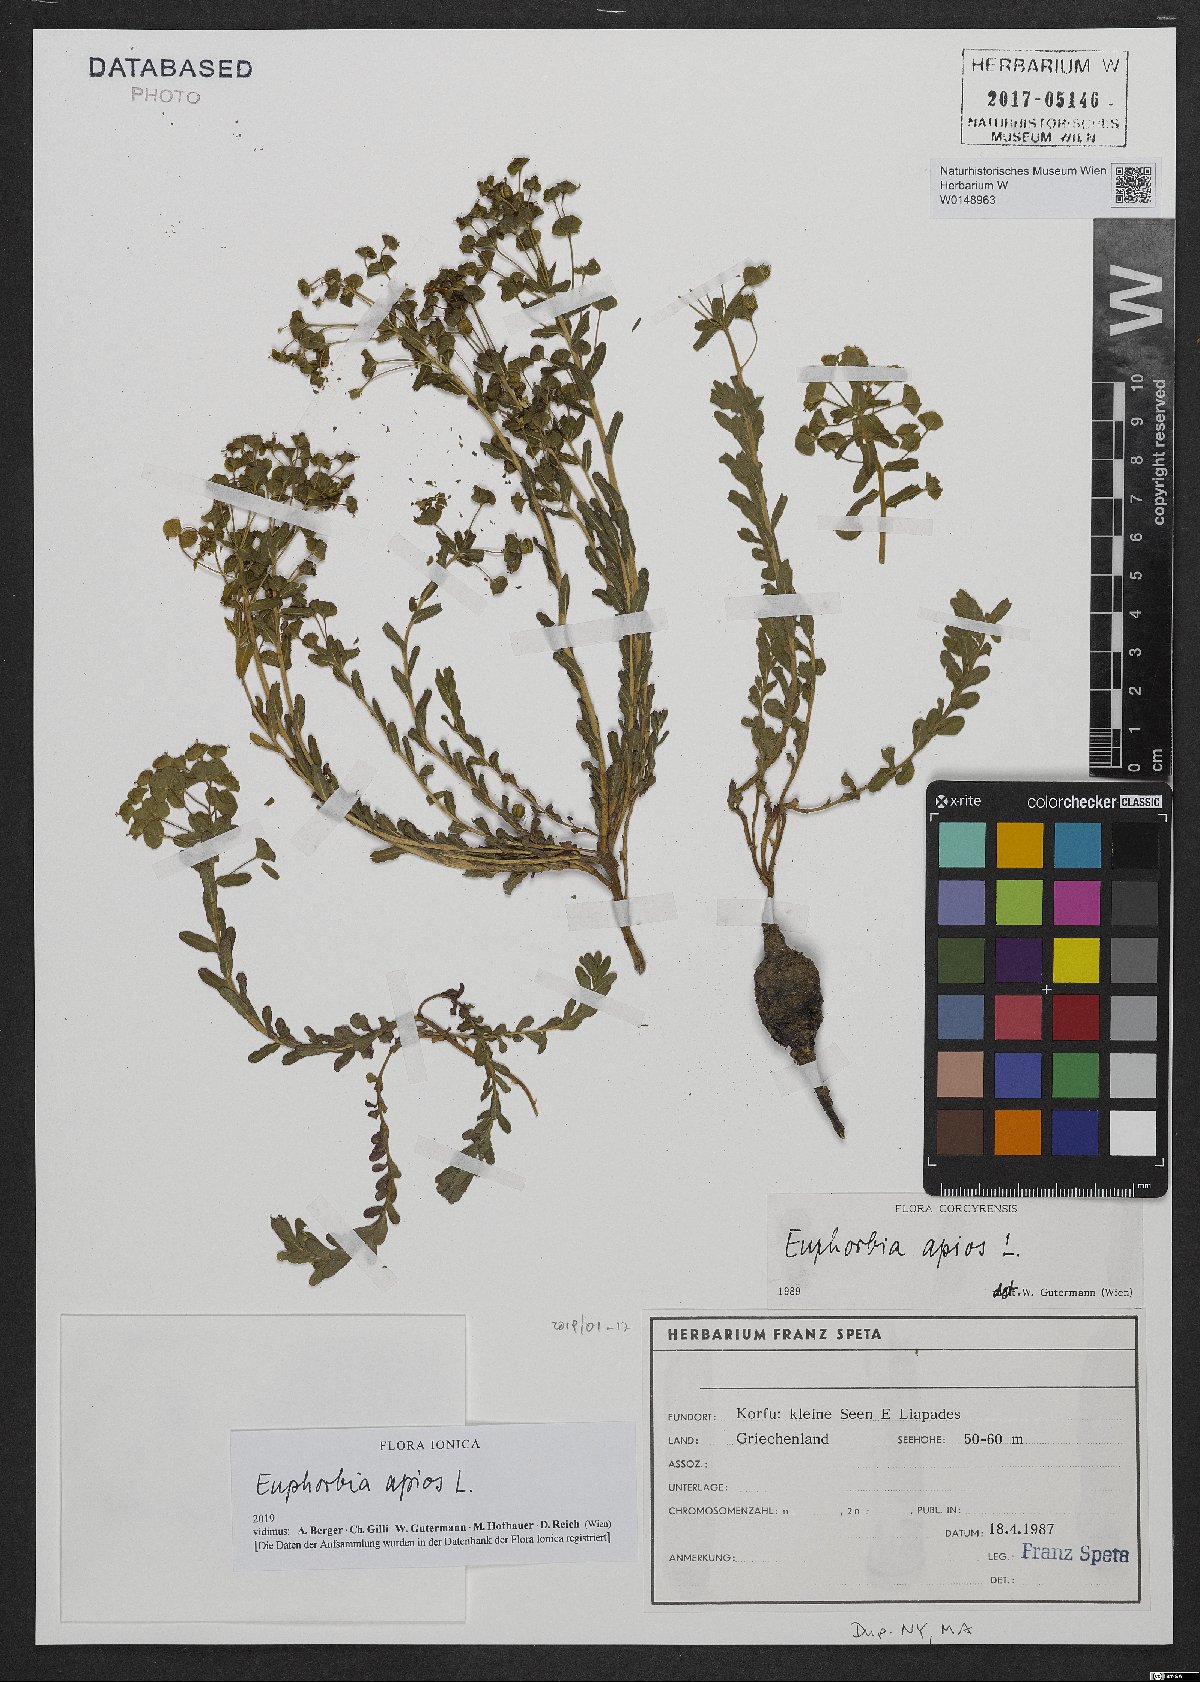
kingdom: Plantae
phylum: Tracheophyta
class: Magnoliopsida
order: Malpighiales
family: Euphorbiaceae
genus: Euphorbia
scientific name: Euphorbia apios
